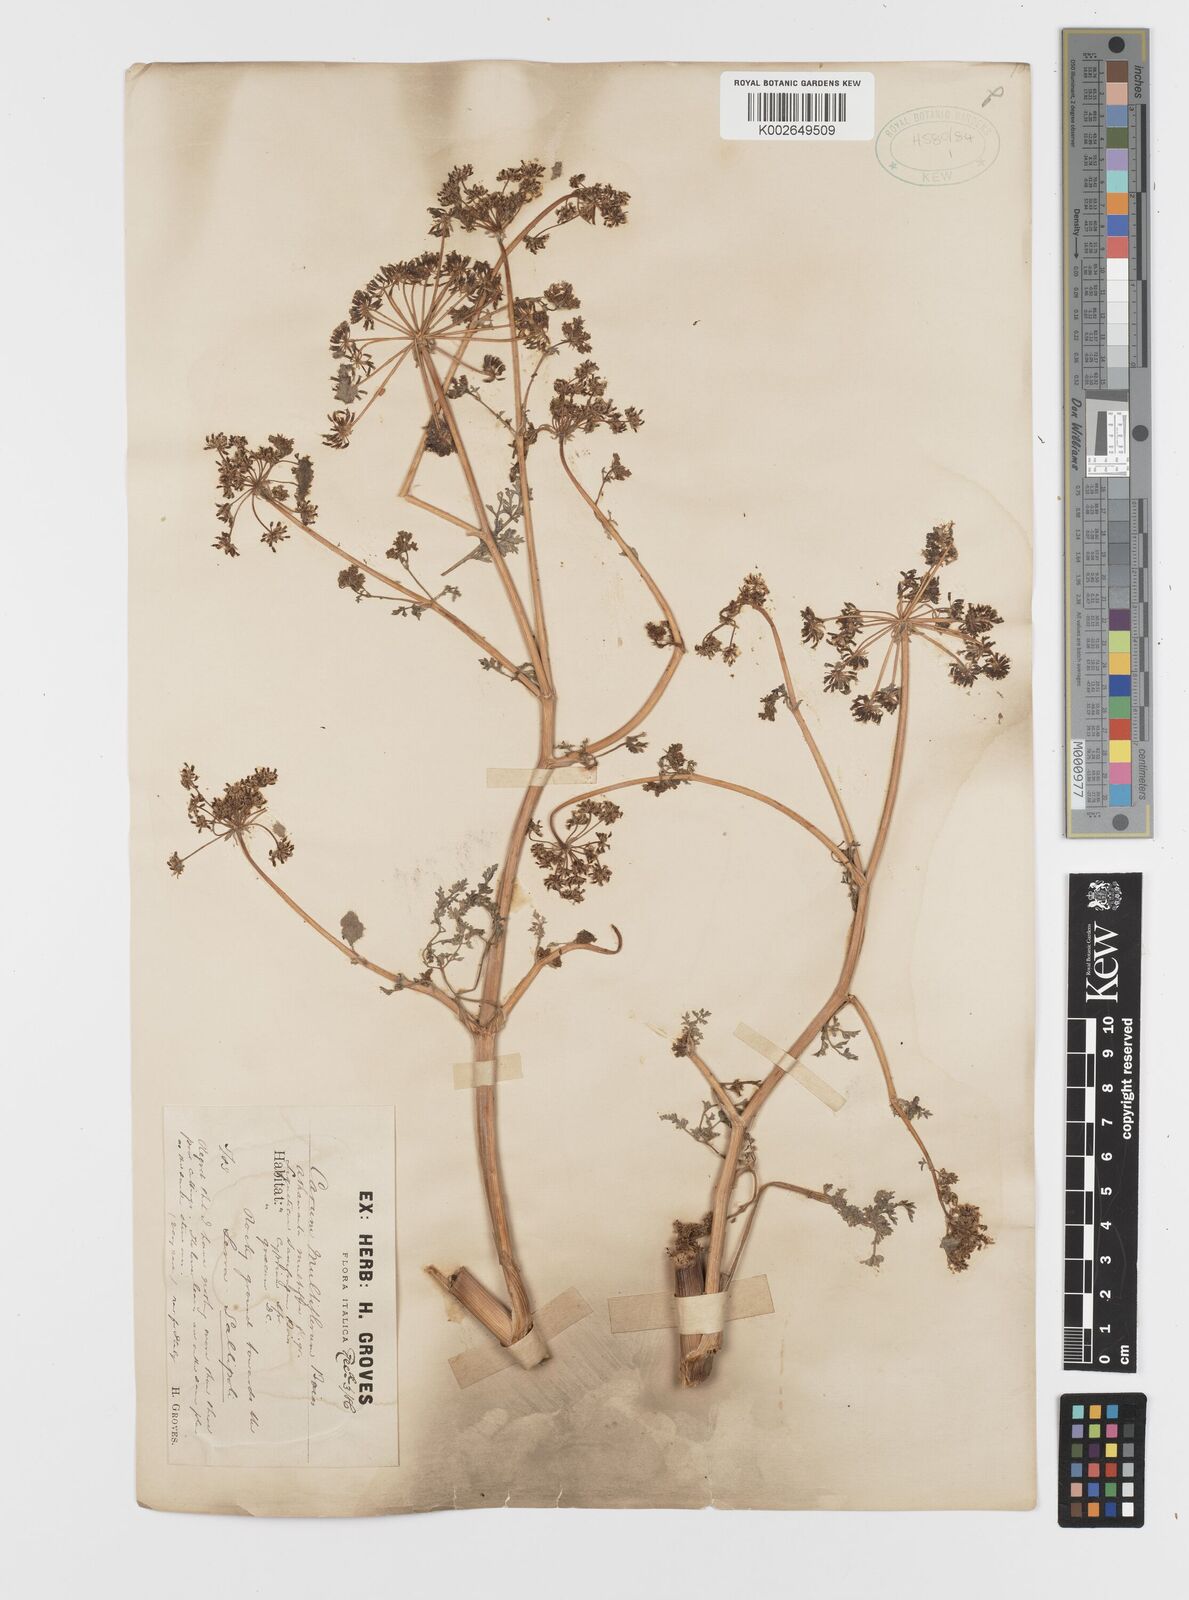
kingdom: Plantae
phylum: Tracheophyta
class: Magnoliopsida
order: Apiales
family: Apiaceae
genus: Hellenocarum
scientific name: Hellenocarum multiflorum
